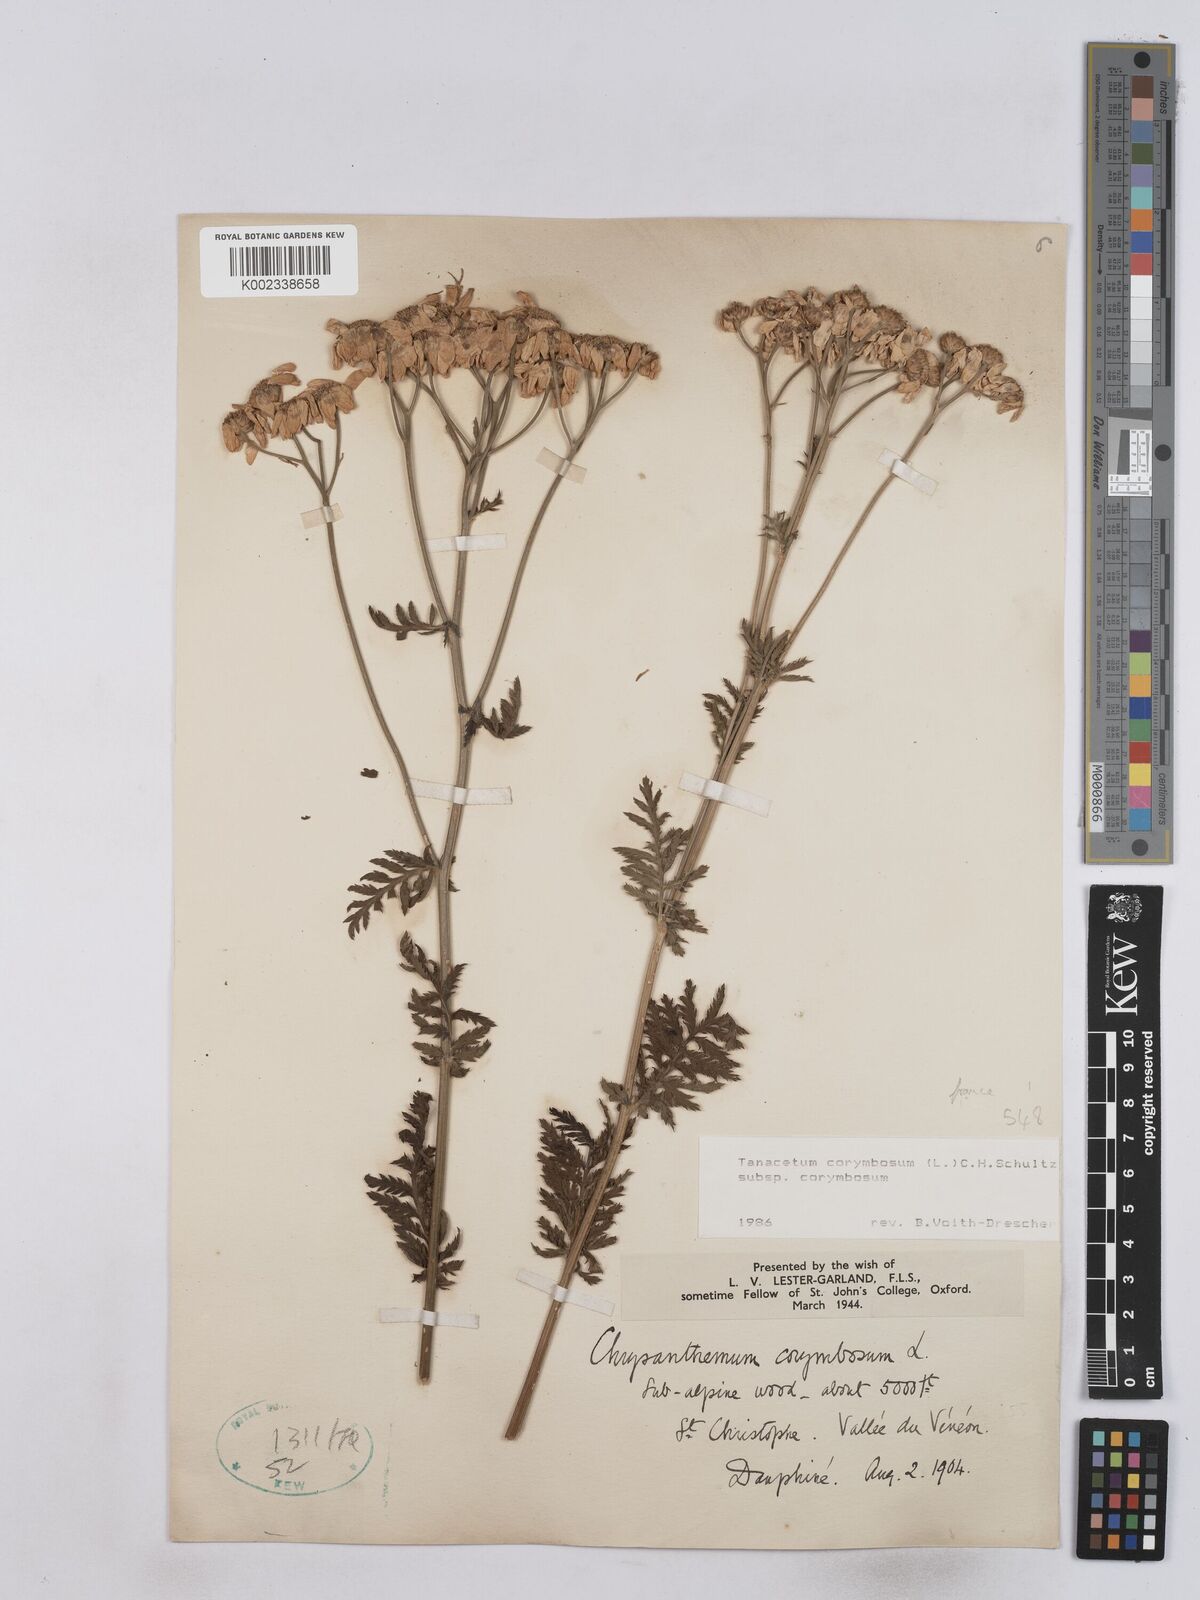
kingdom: Plantae
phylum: Tracheophyta
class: Magnoliopsida
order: Asterales
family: Asteraceae
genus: Tanacetum
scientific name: Tanacetum corymbosum
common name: Scentless feverfew
